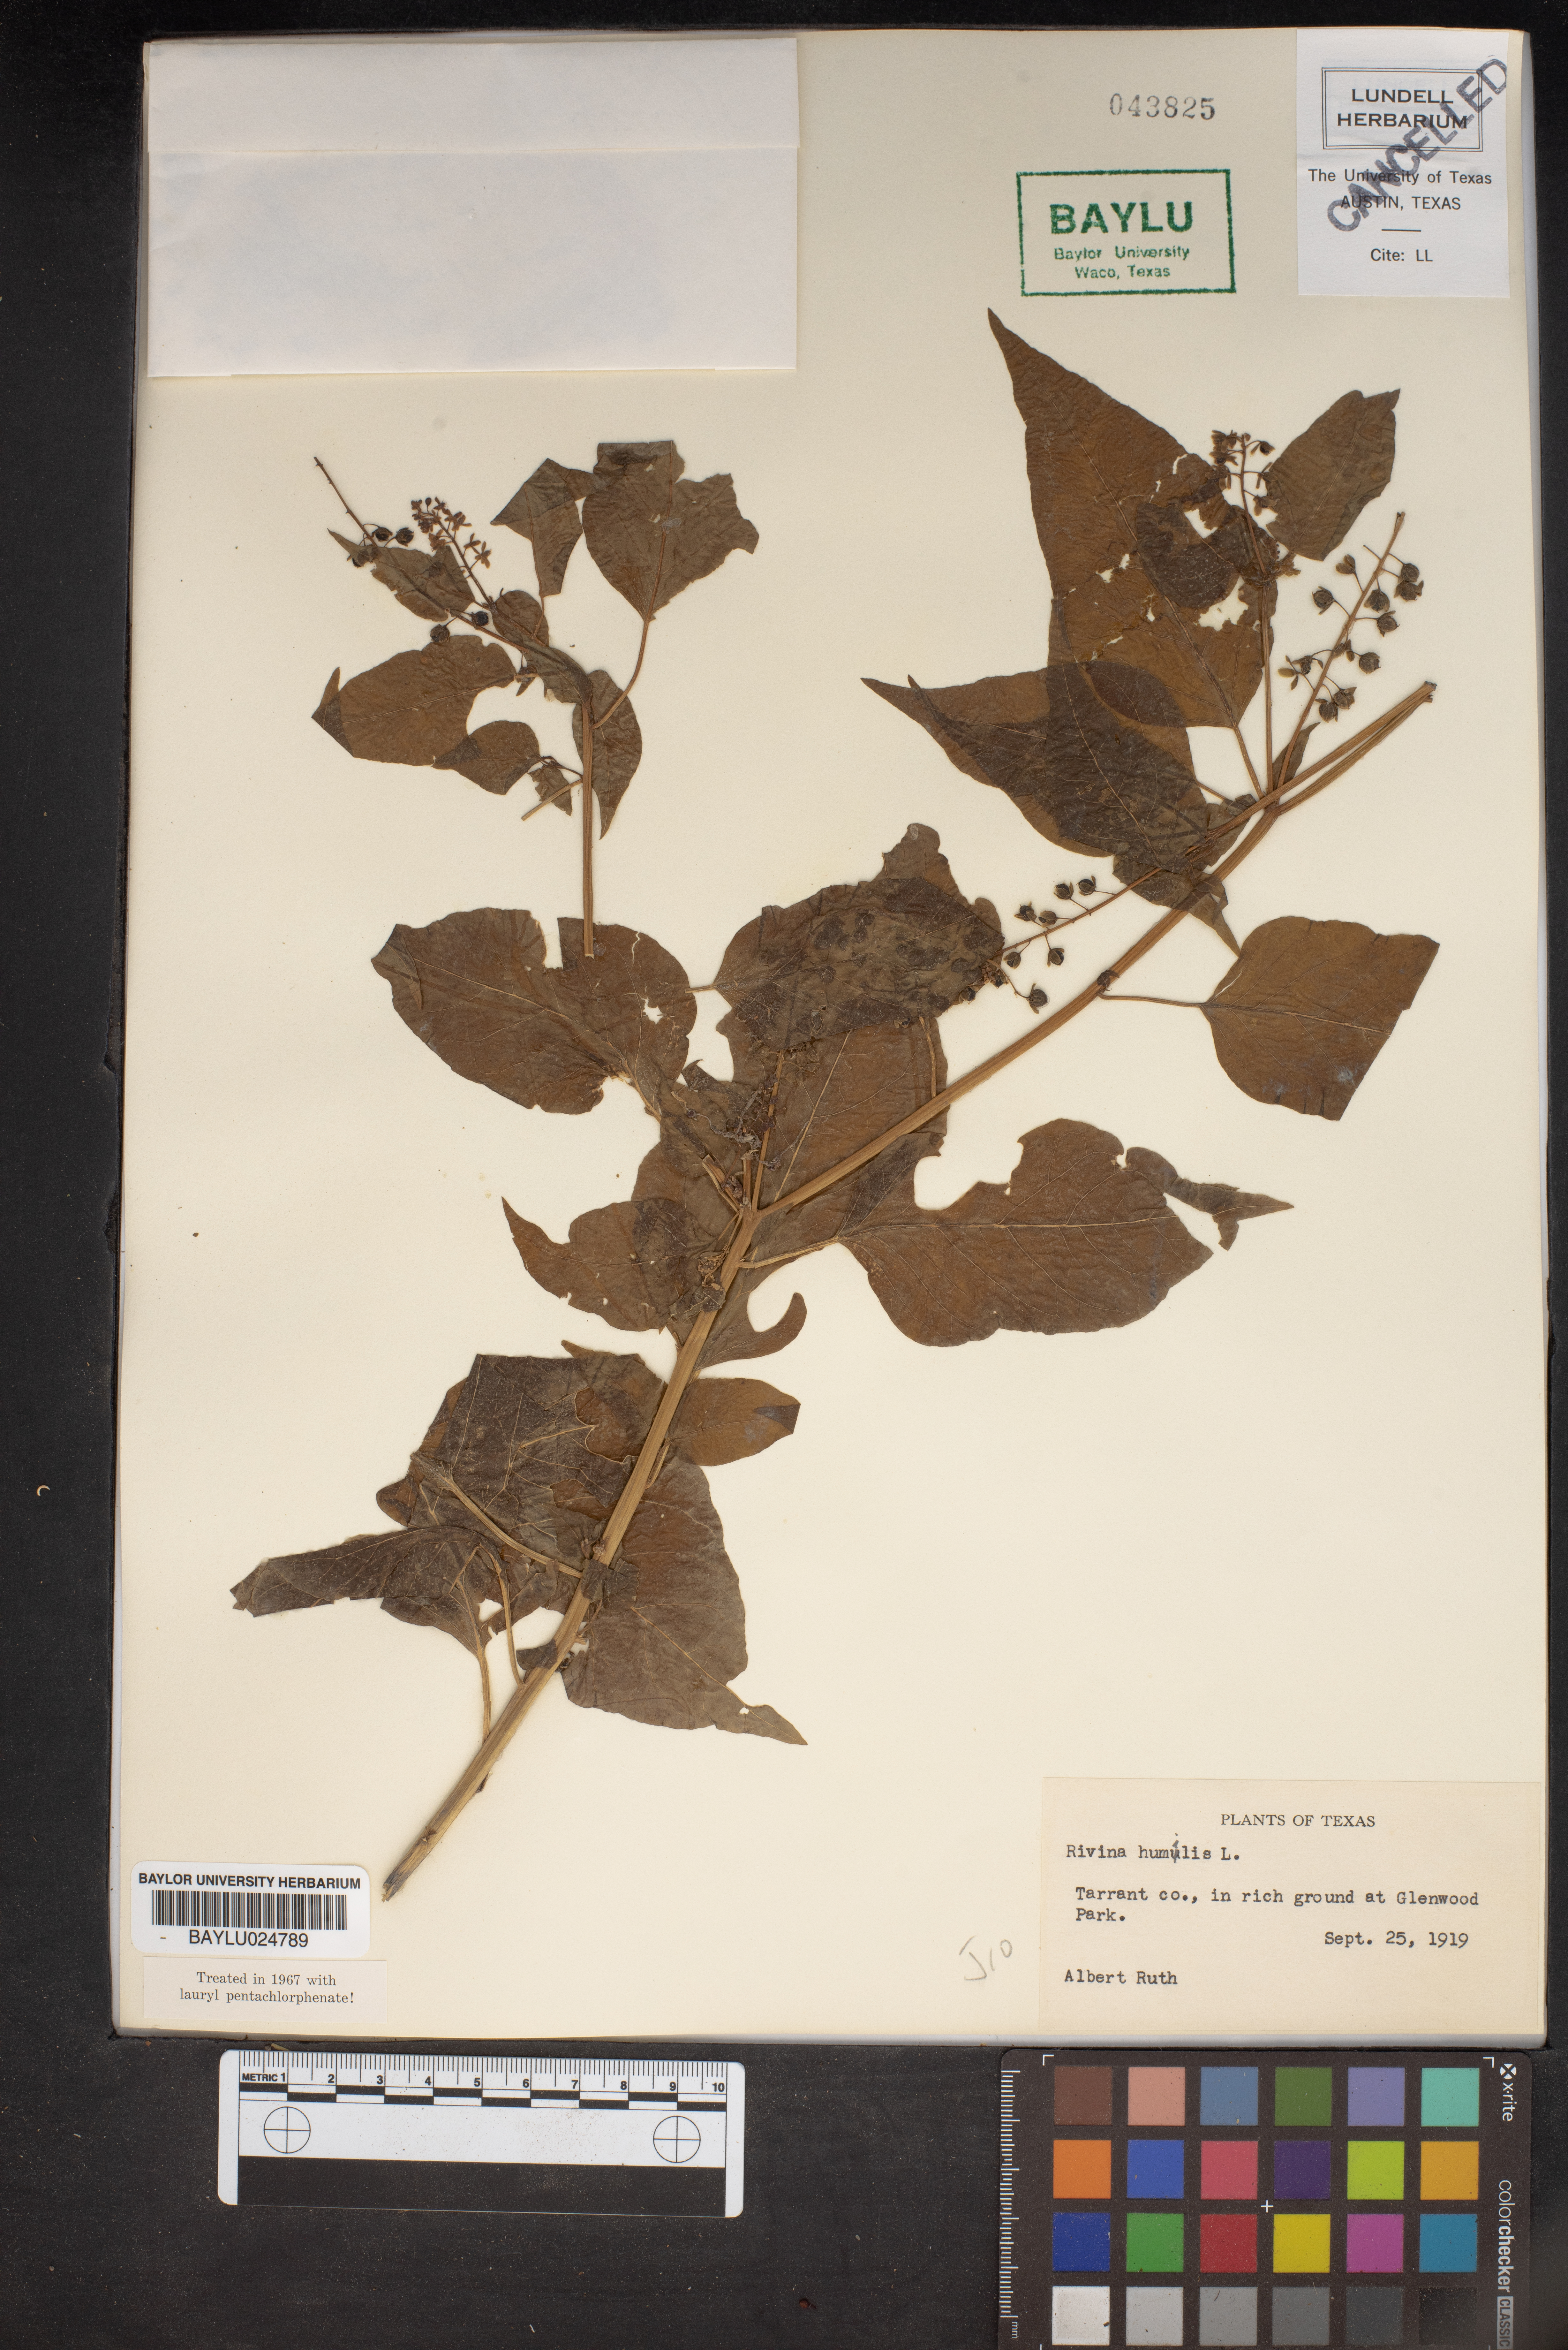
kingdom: Plantae
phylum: Tracheophyta
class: Magnoliopsida
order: Caryophyllales
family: Phytolaccaceae
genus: Rivina
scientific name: Rivina humilis
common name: Rougeplant
